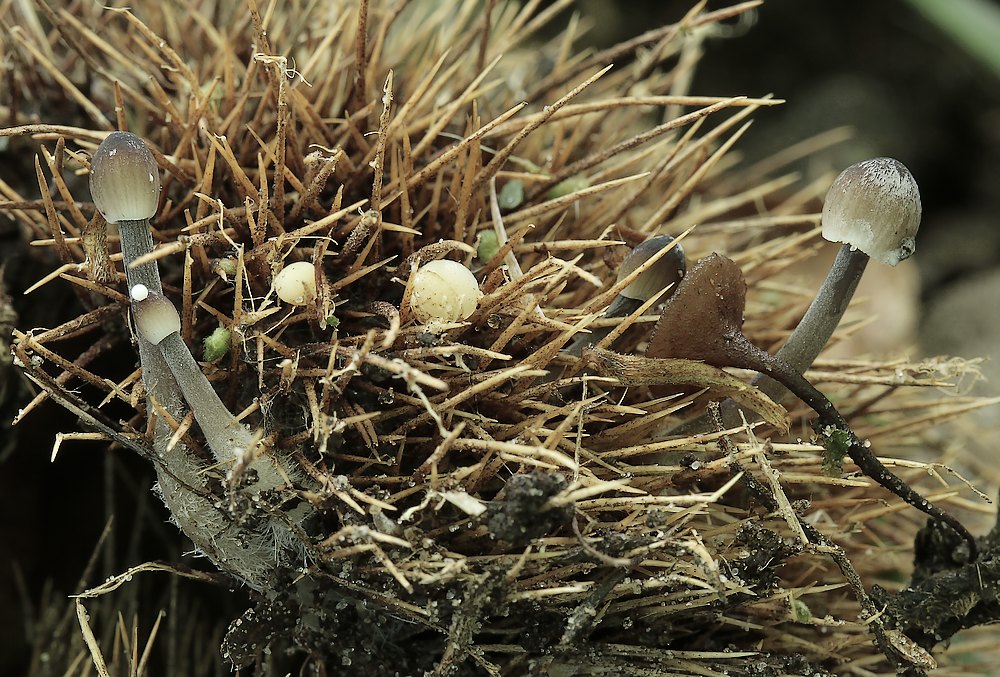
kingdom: Fungi
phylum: Basidiomycota
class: Agaricomycetes
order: Agaricales
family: Mycenaceae
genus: Mycena
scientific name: Mycena
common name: huesvamp
